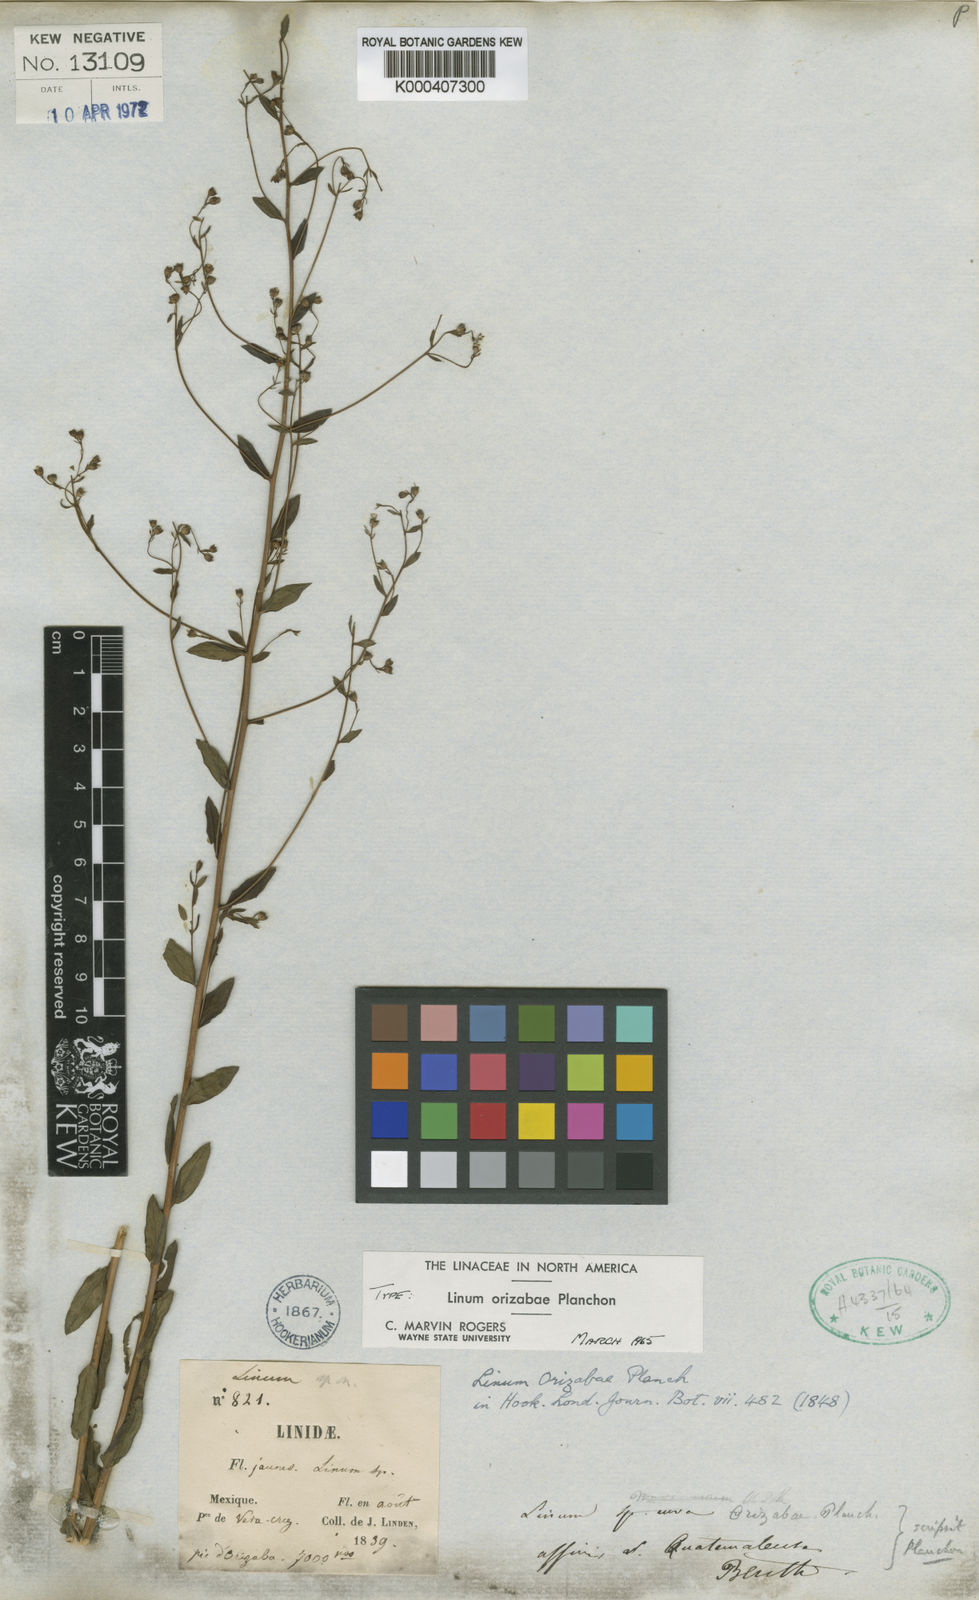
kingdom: Plantae
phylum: Tracheophyta
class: Magnoliopsida
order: Malpighiales
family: Linaceae
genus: Linum
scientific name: Linum orizabae
